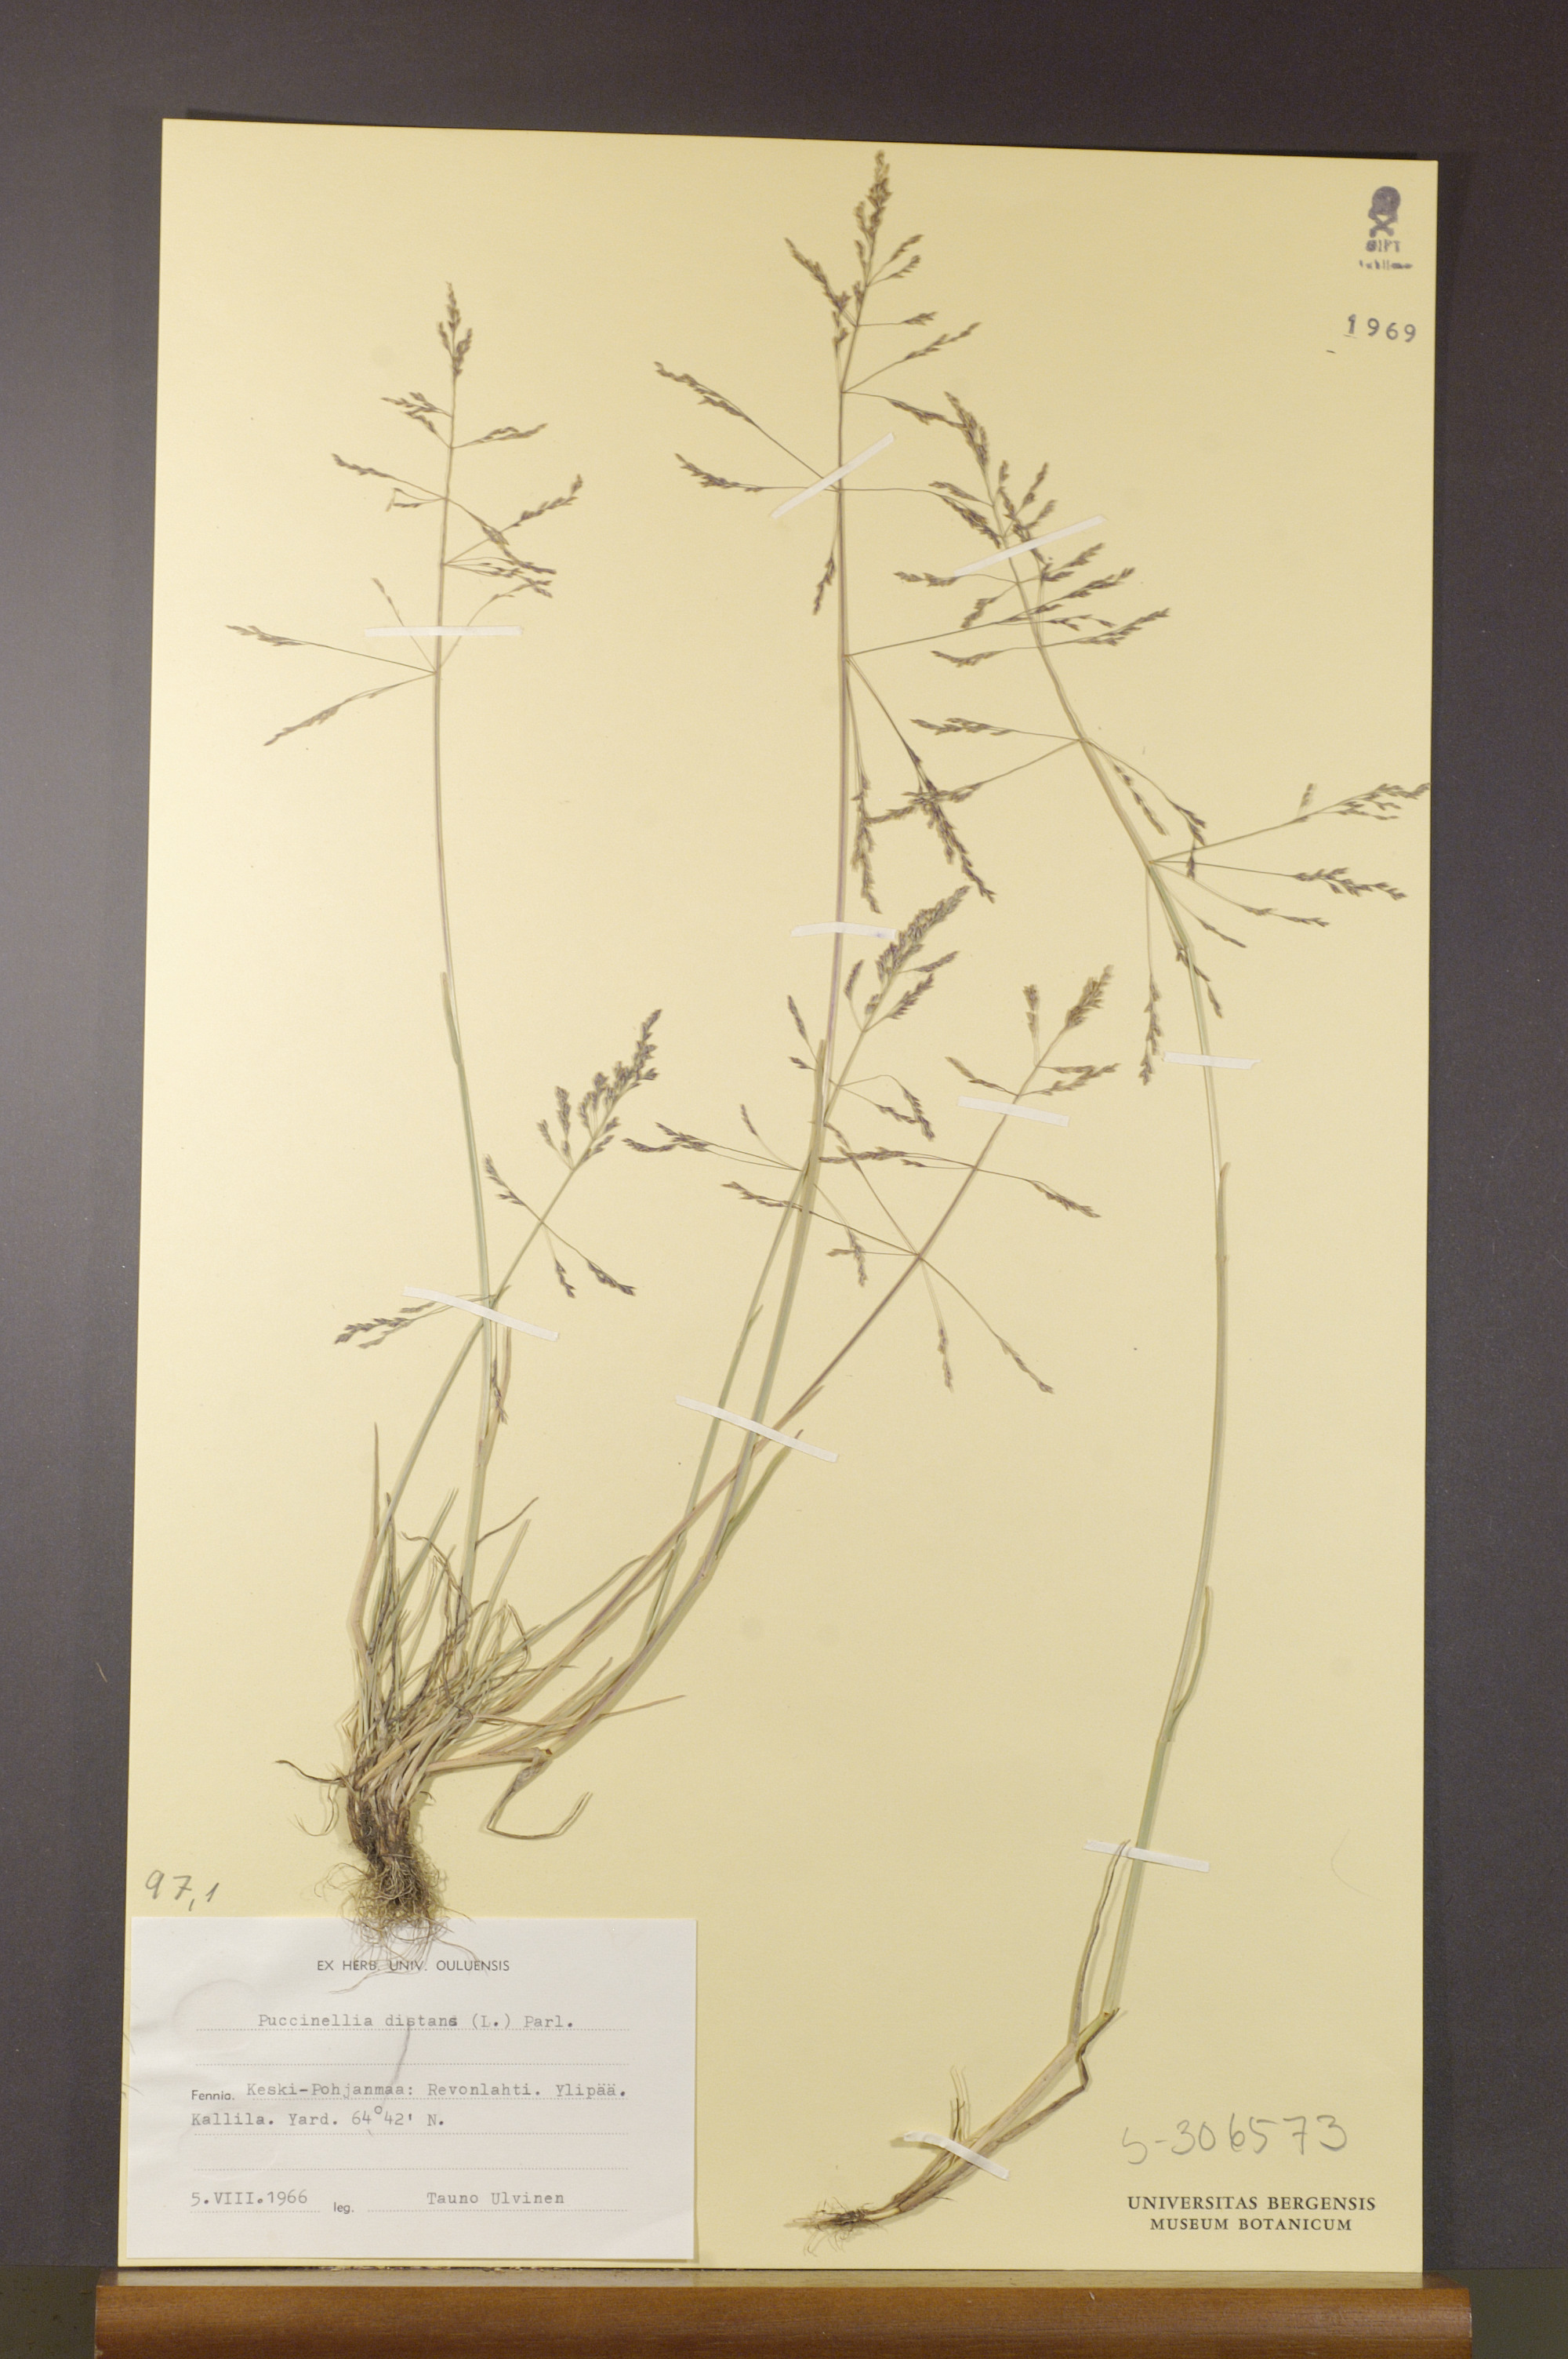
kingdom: Plantae
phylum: Tracheophyta
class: Liliopsida
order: Poales
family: Poaceae
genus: Puccinellia
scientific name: Puccinellia distans
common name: Weeping alkaligrass
